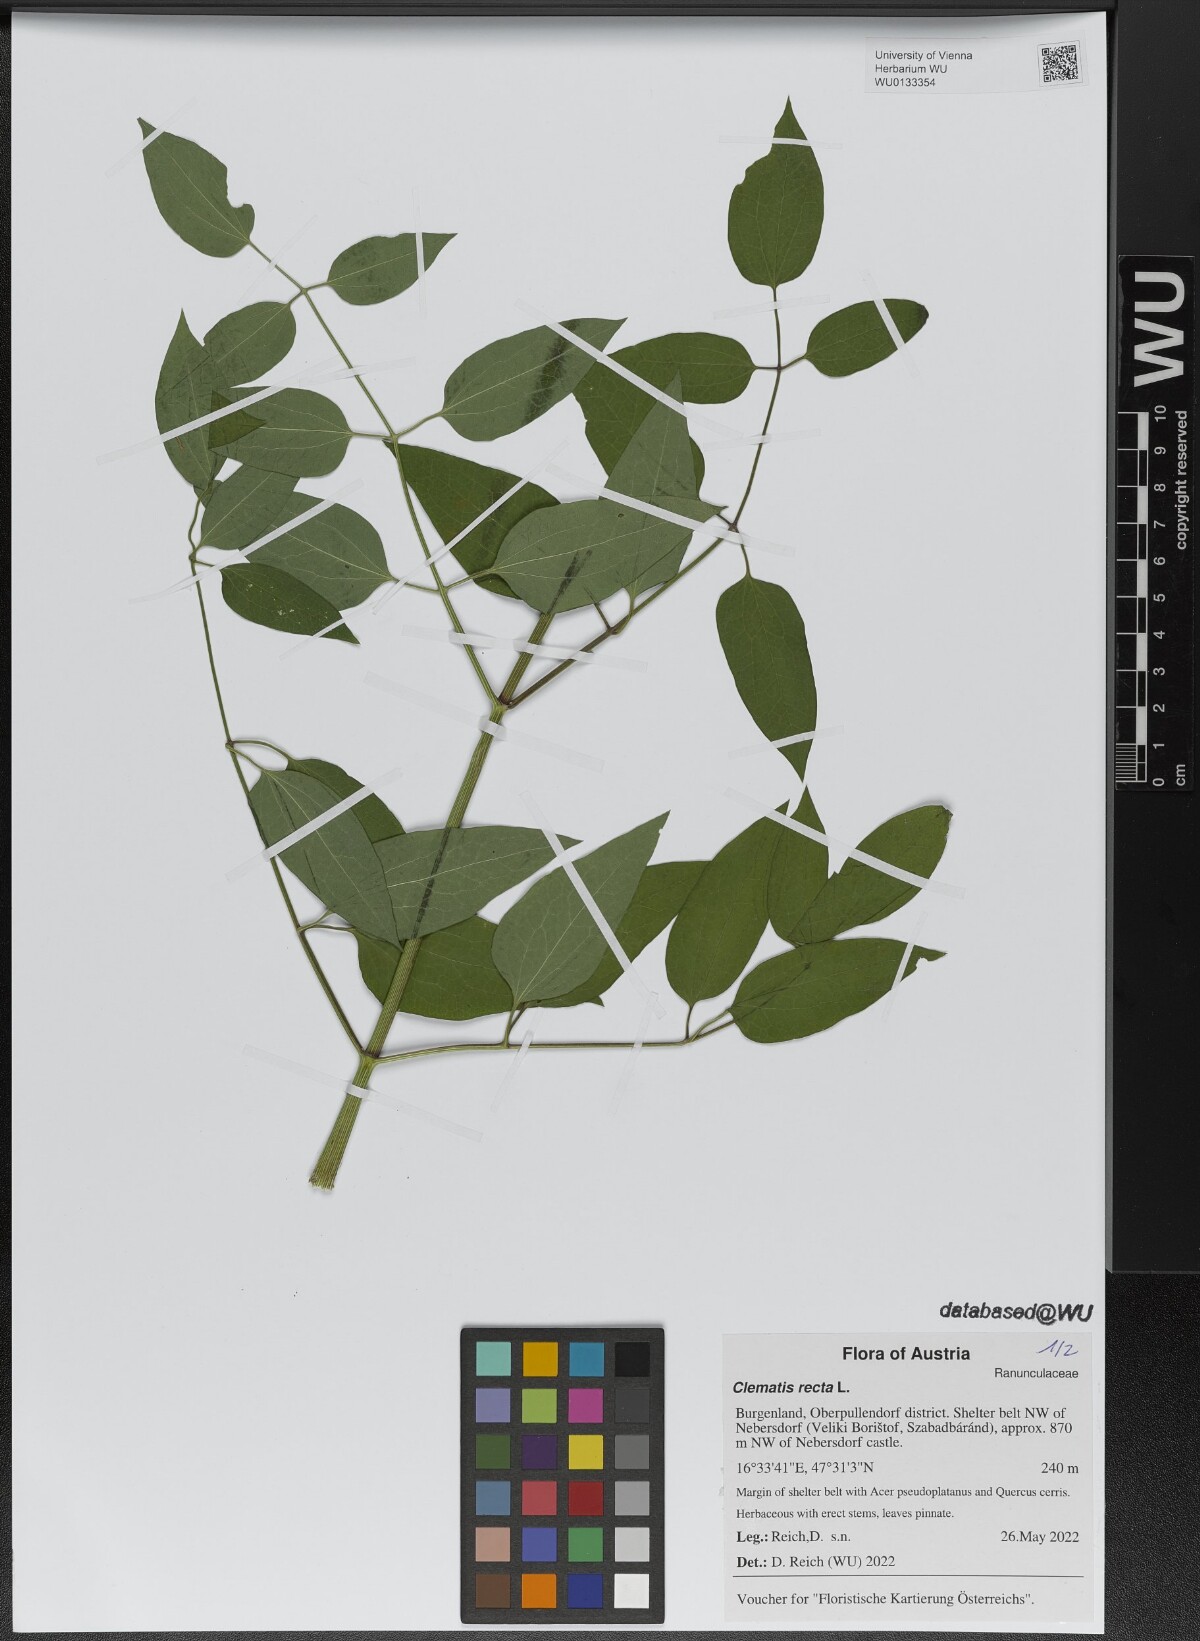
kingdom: Plantae
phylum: Tracheophyta
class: Magnoliopsida
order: Ranunculales
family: Ranunculaceae
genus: Clematis
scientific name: Clematis recta
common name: Ground clematis
